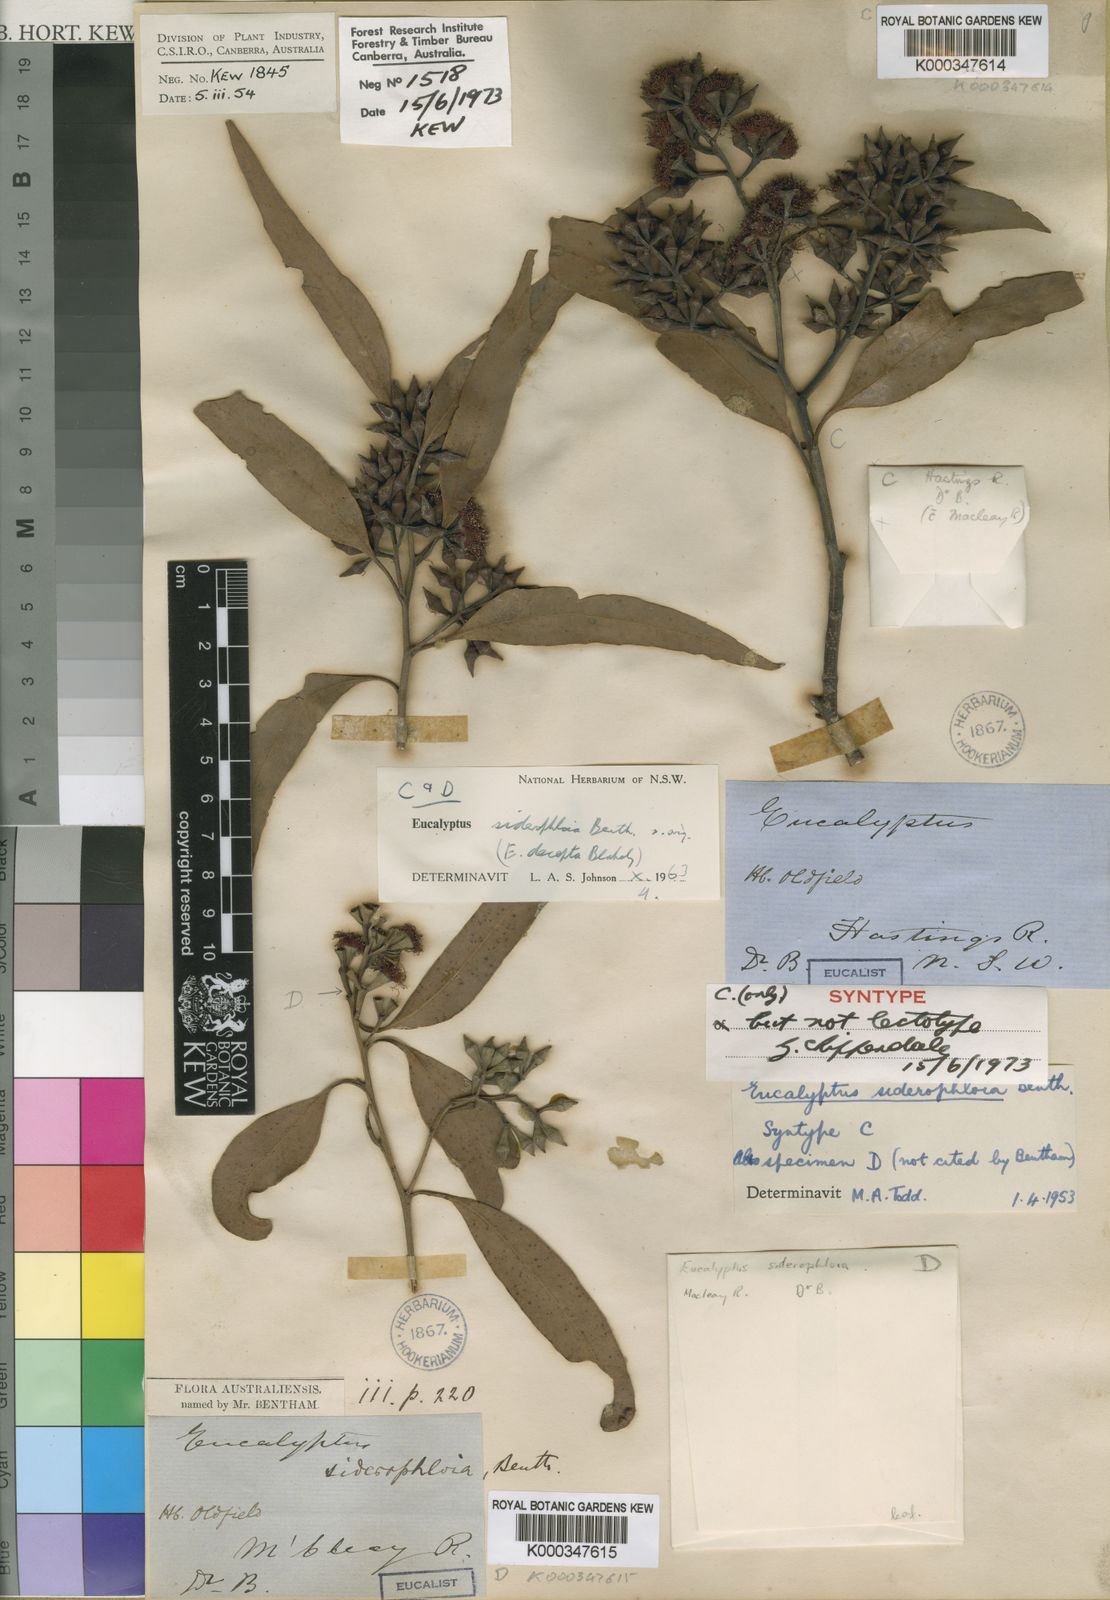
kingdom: Plantae
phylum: Tracheophyta
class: Magnoliopsida
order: Myrtales
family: Myrtaceae
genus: Eucalyptus
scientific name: Eucalyptus siderophloia
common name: Broad-leafed-ironbark
